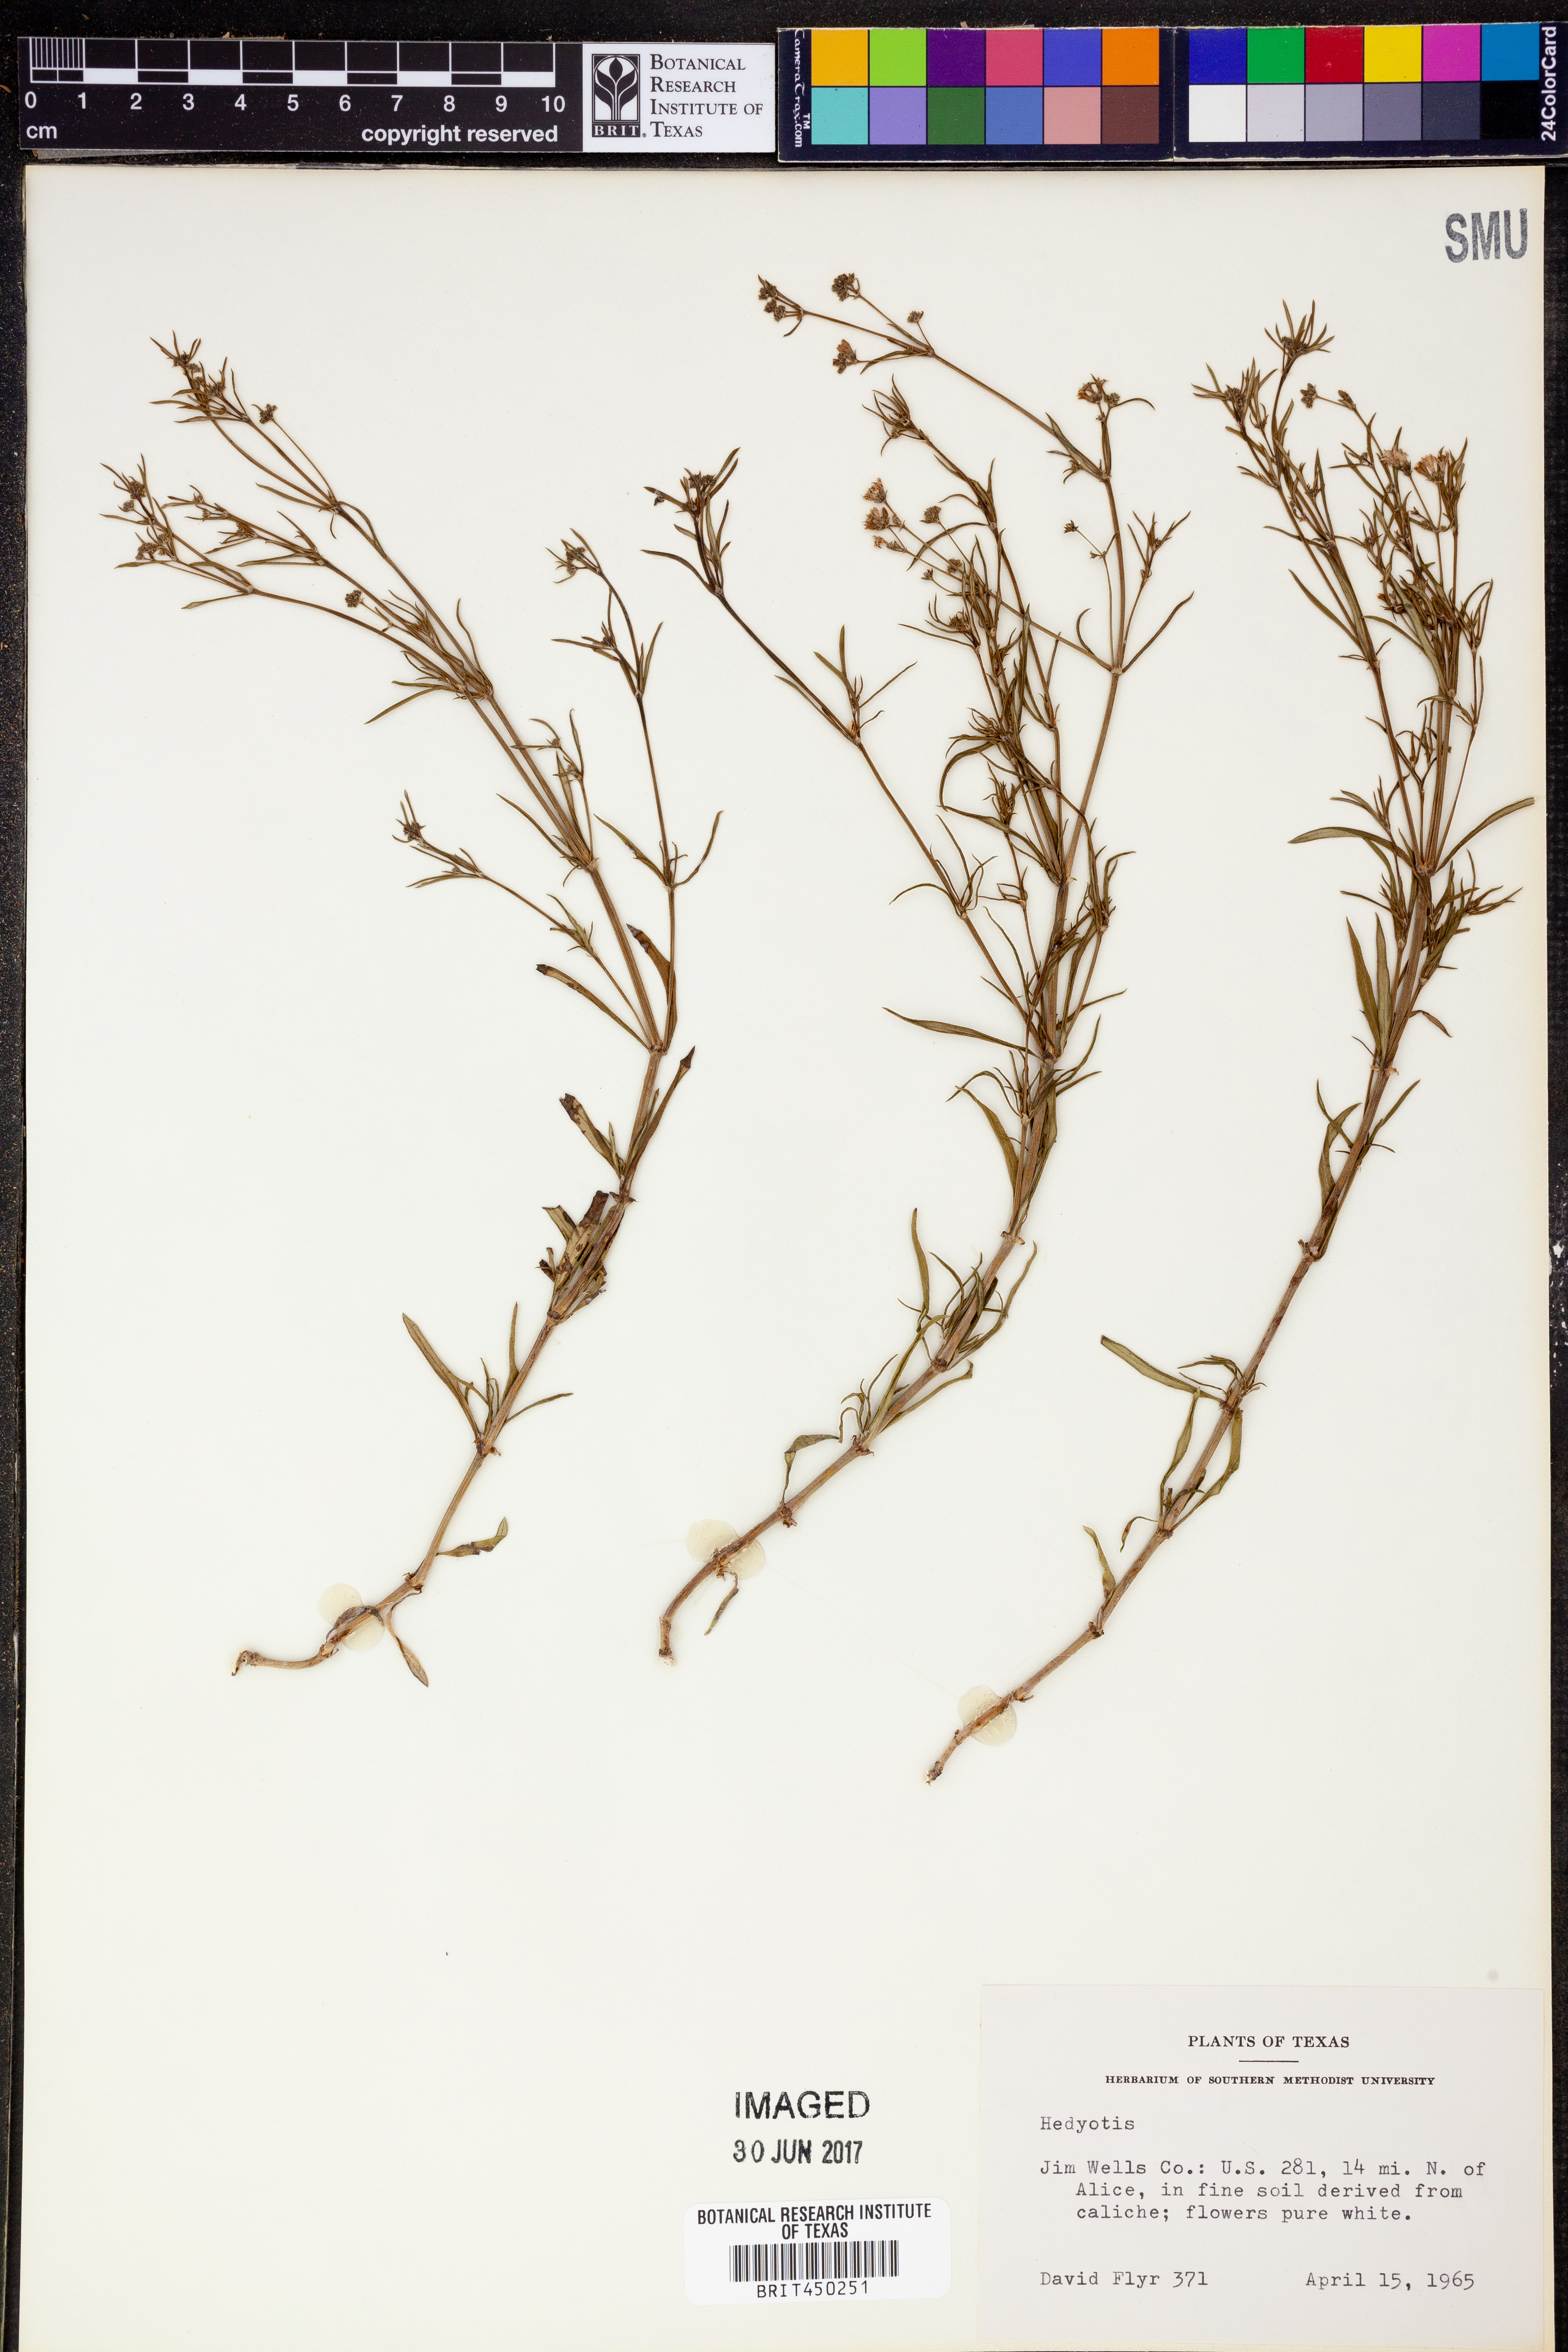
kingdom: Plantae
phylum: Tracheophyta
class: Magnoliopsida
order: Gentianales
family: Rubiaceae
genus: Hedyotis
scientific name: Hedyotis
